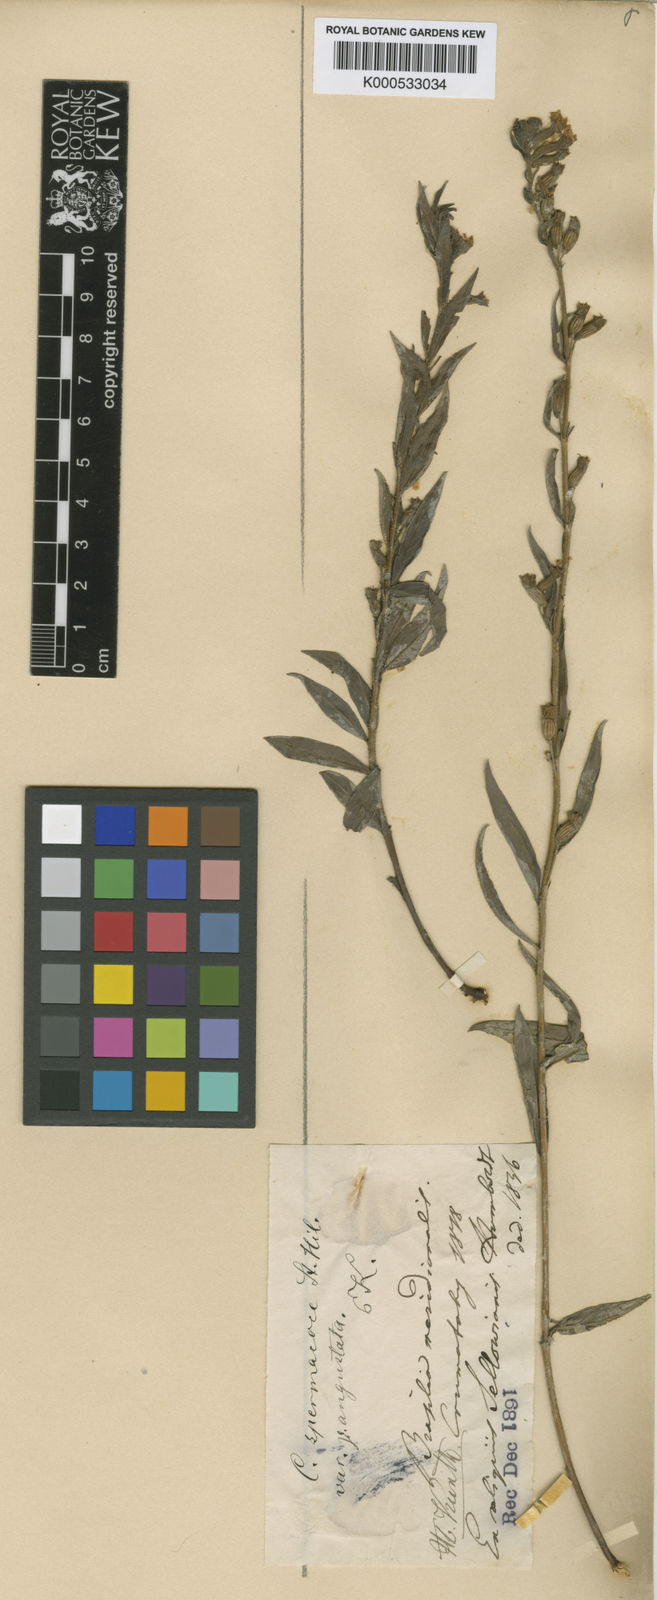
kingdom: Plantae
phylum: Tracheophyta
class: Magnoliopsida
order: Myrtales
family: Lythraceae
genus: Cuphea
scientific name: Cuphea spermacoce
